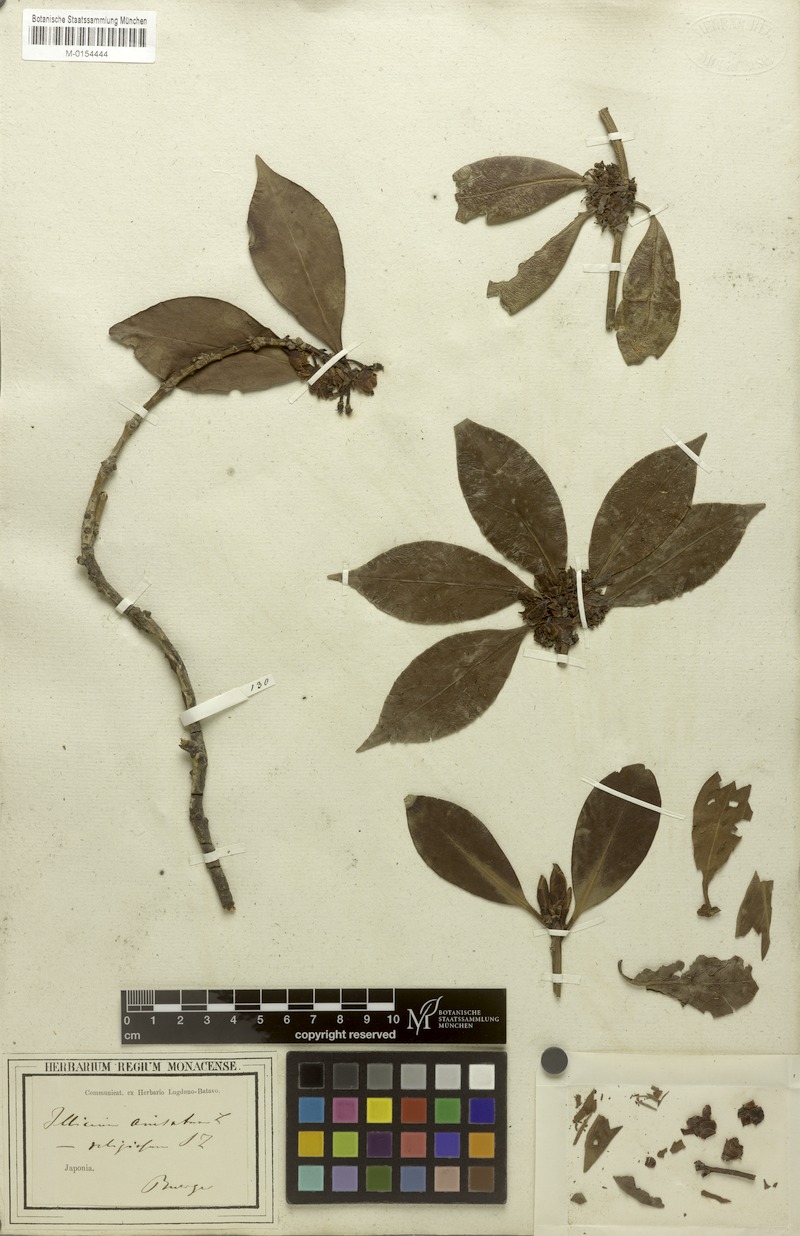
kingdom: Plantae
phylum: Tracheophyta
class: Magnoliopsida
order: Austrobaileyales
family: Schisandraceae
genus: Illicium
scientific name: Illicium anisatum
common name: Sacred anisetree
